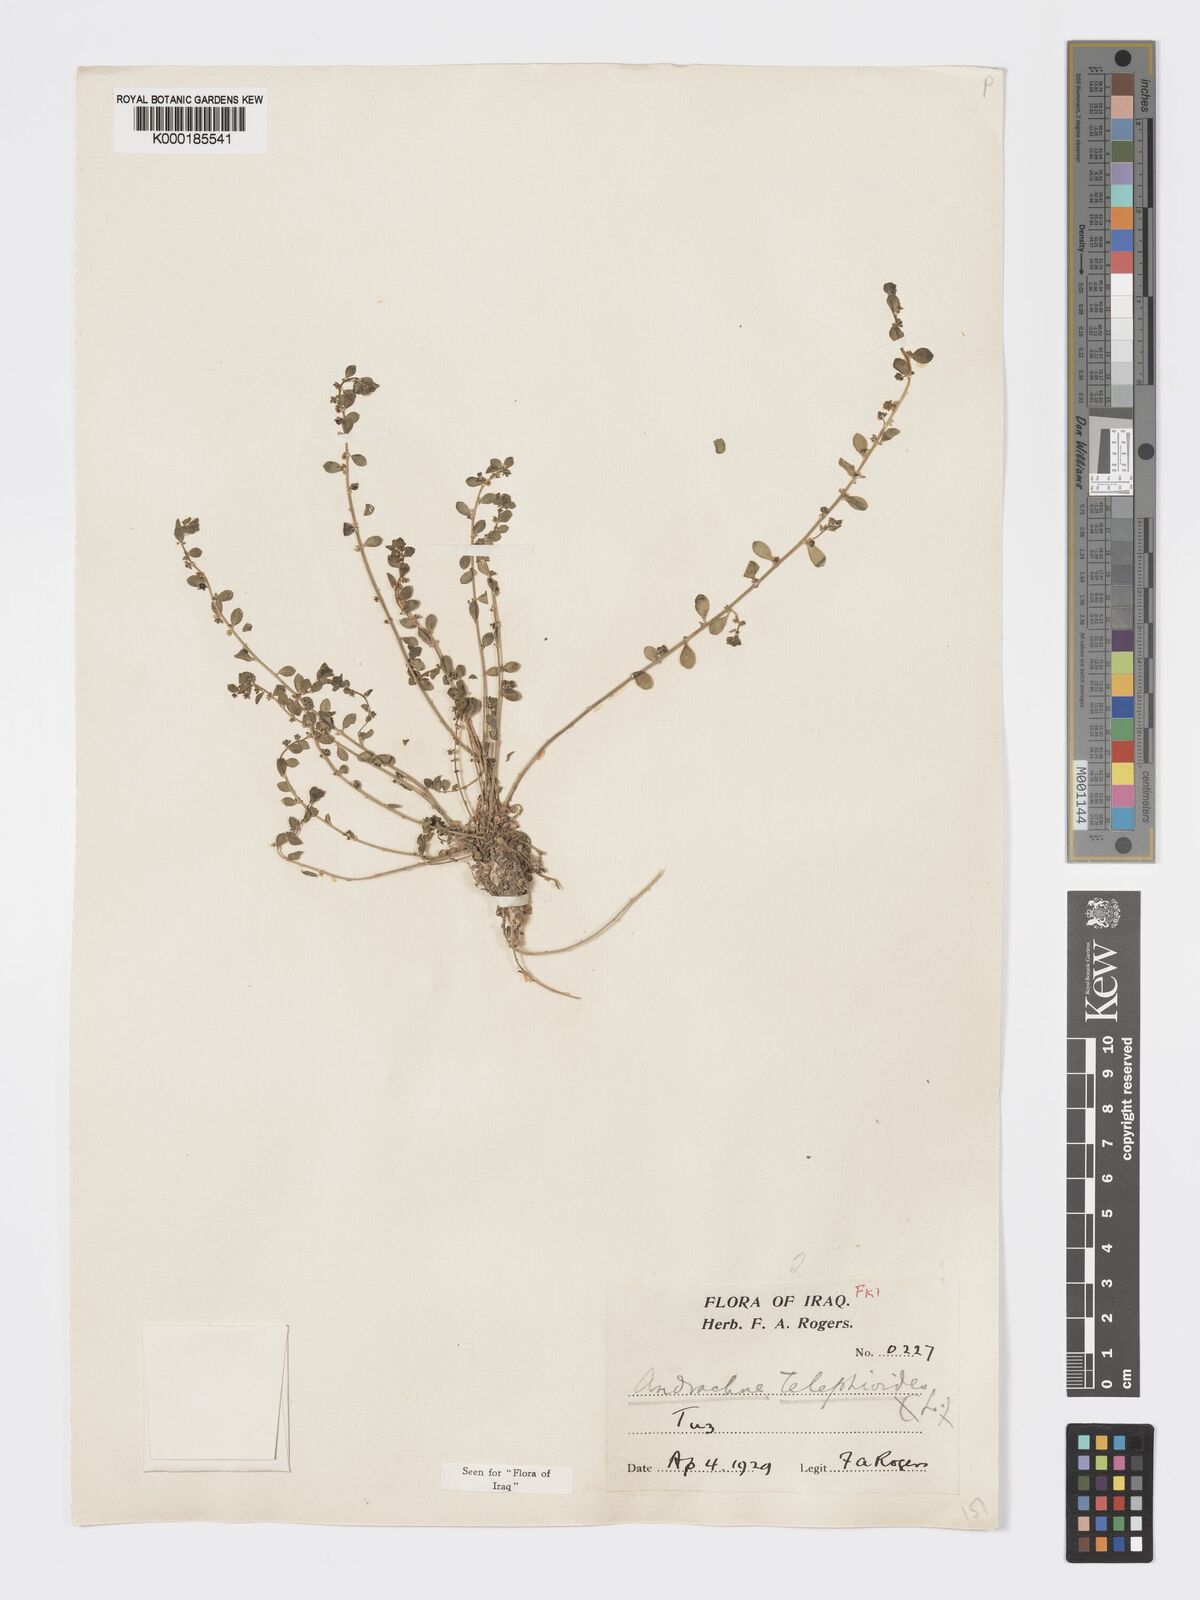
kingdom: Plantae
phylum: Tracheophyta
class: Magnoliopsida
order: Malpighiales
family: Phyllanthaceae
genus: Andrachne
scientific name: Andrachne telephioides
